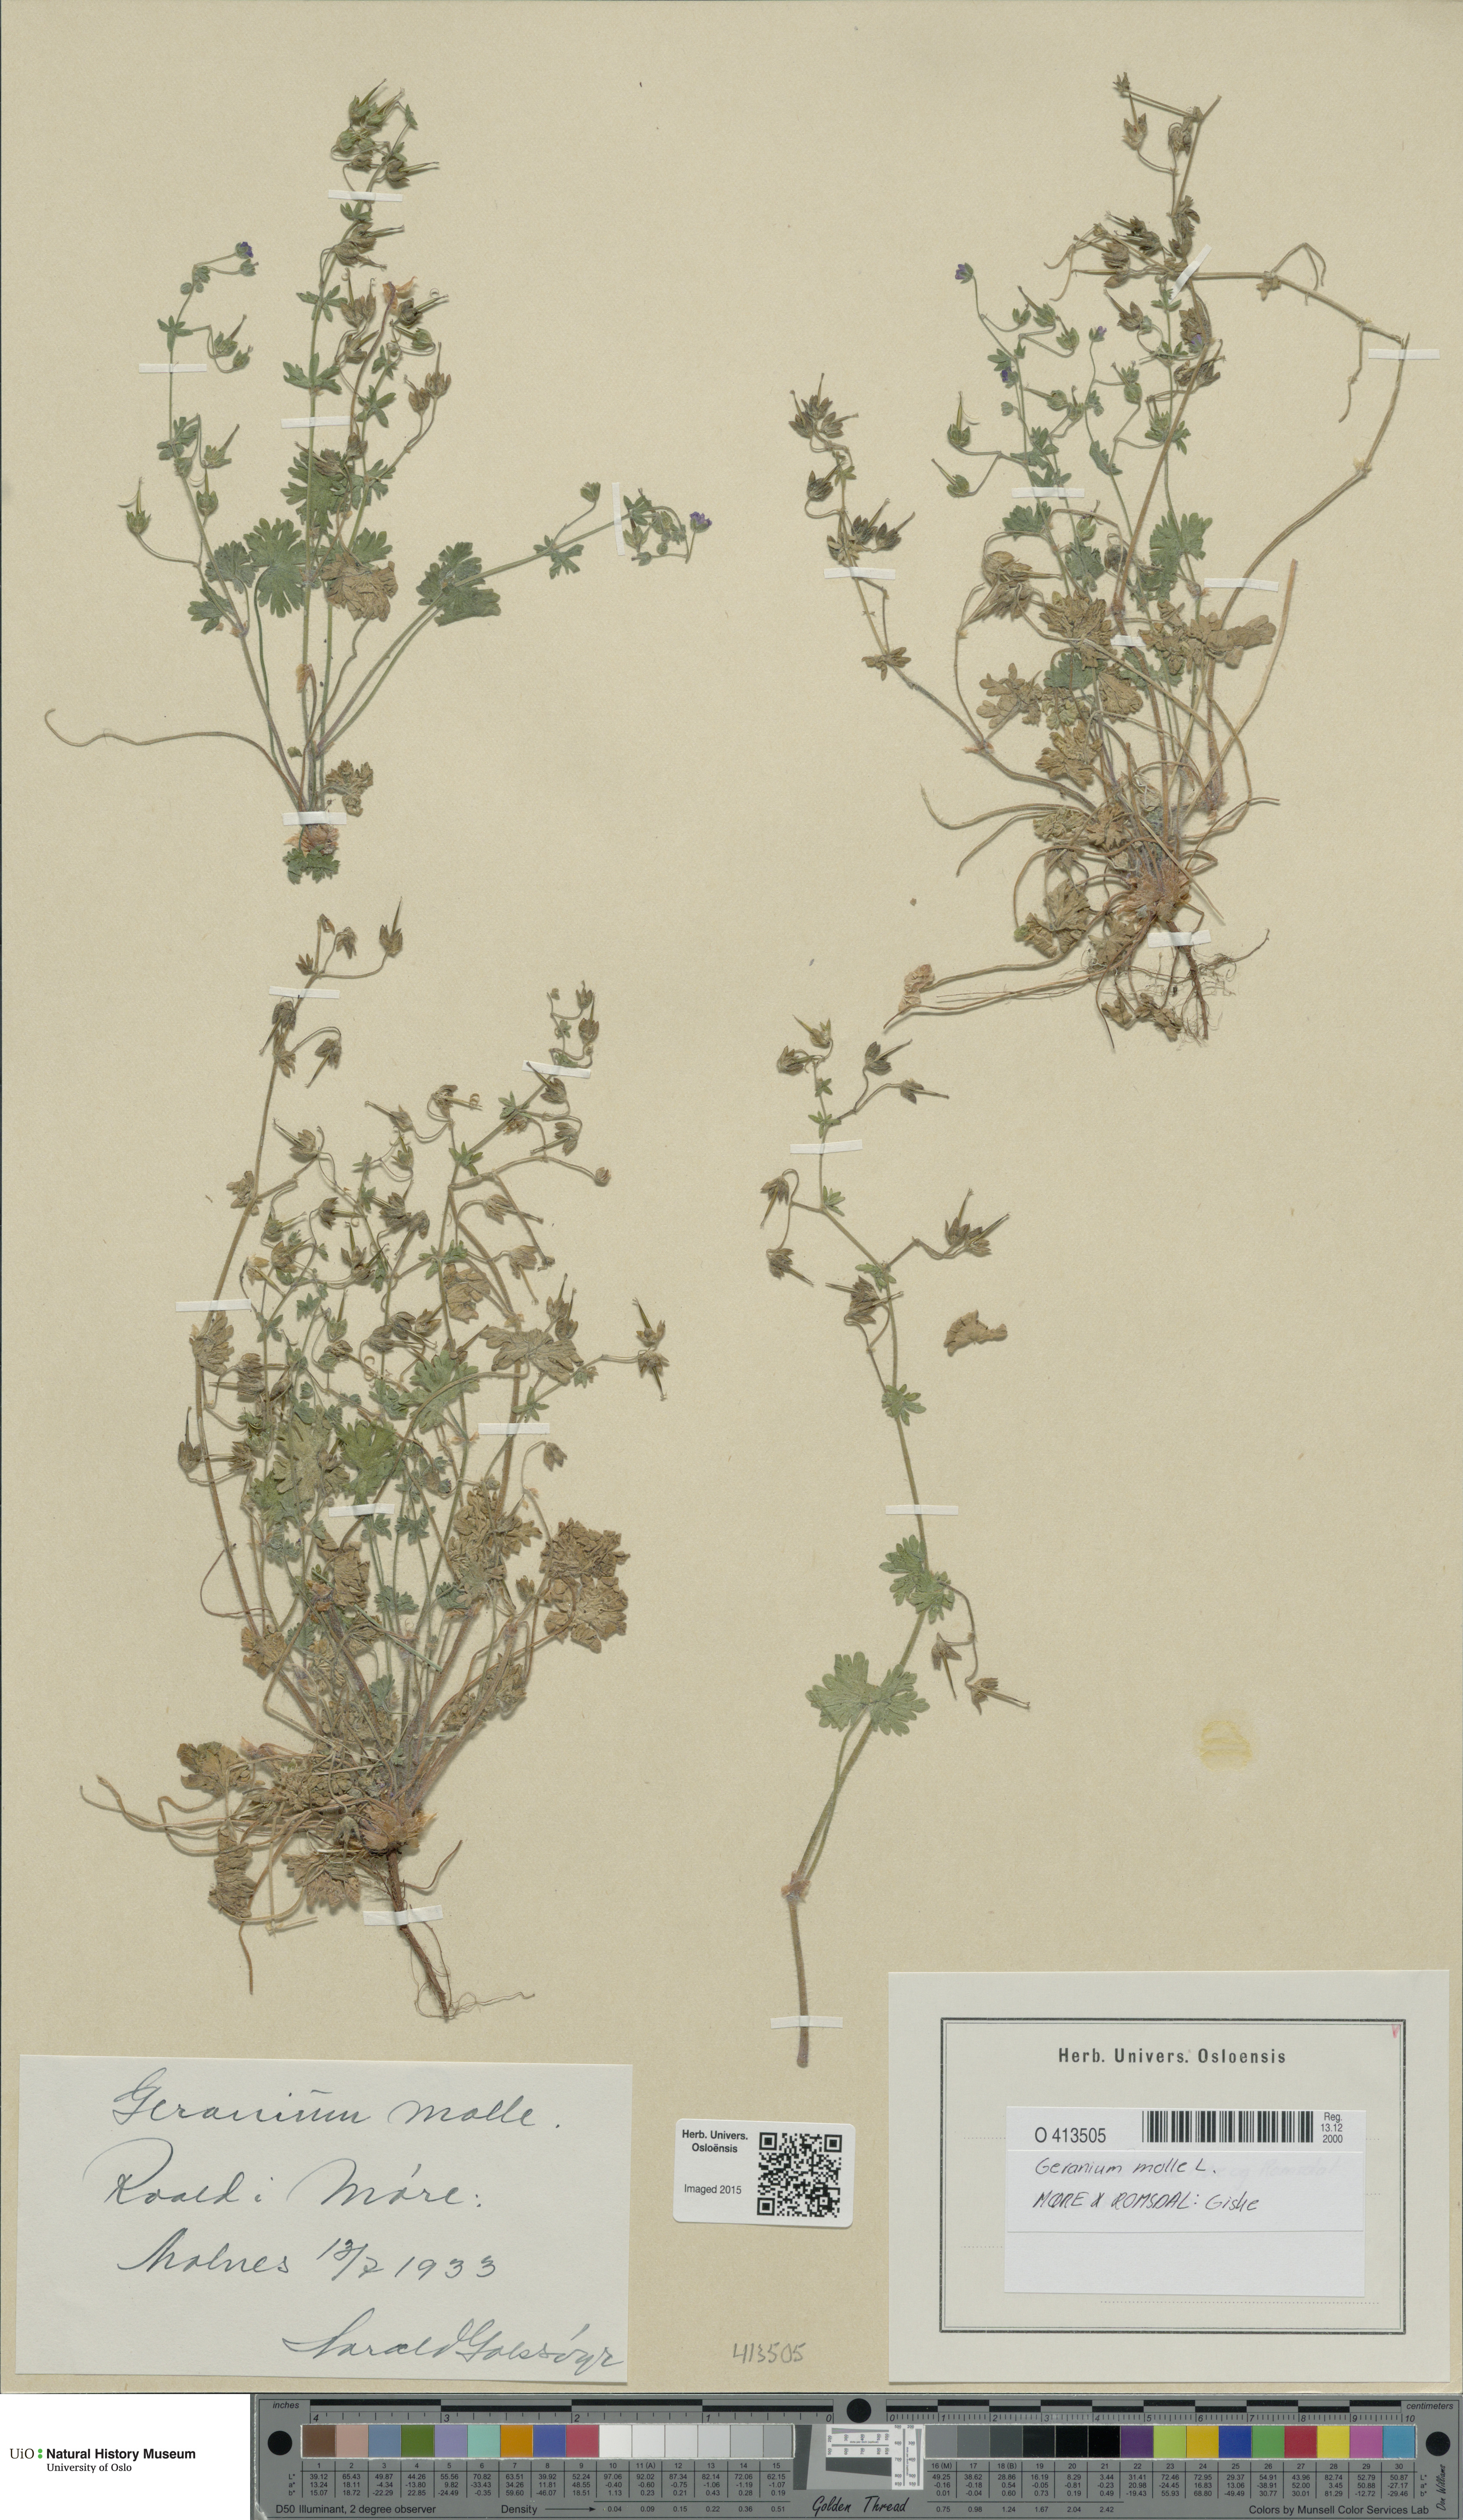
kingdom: Plantae
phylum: Tracheophyta
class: Magnoliopsida
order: Geraniales
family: Geraniaceae
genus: Geranium
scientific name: Geranium molle
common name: Dove's-foot crane's-bill
